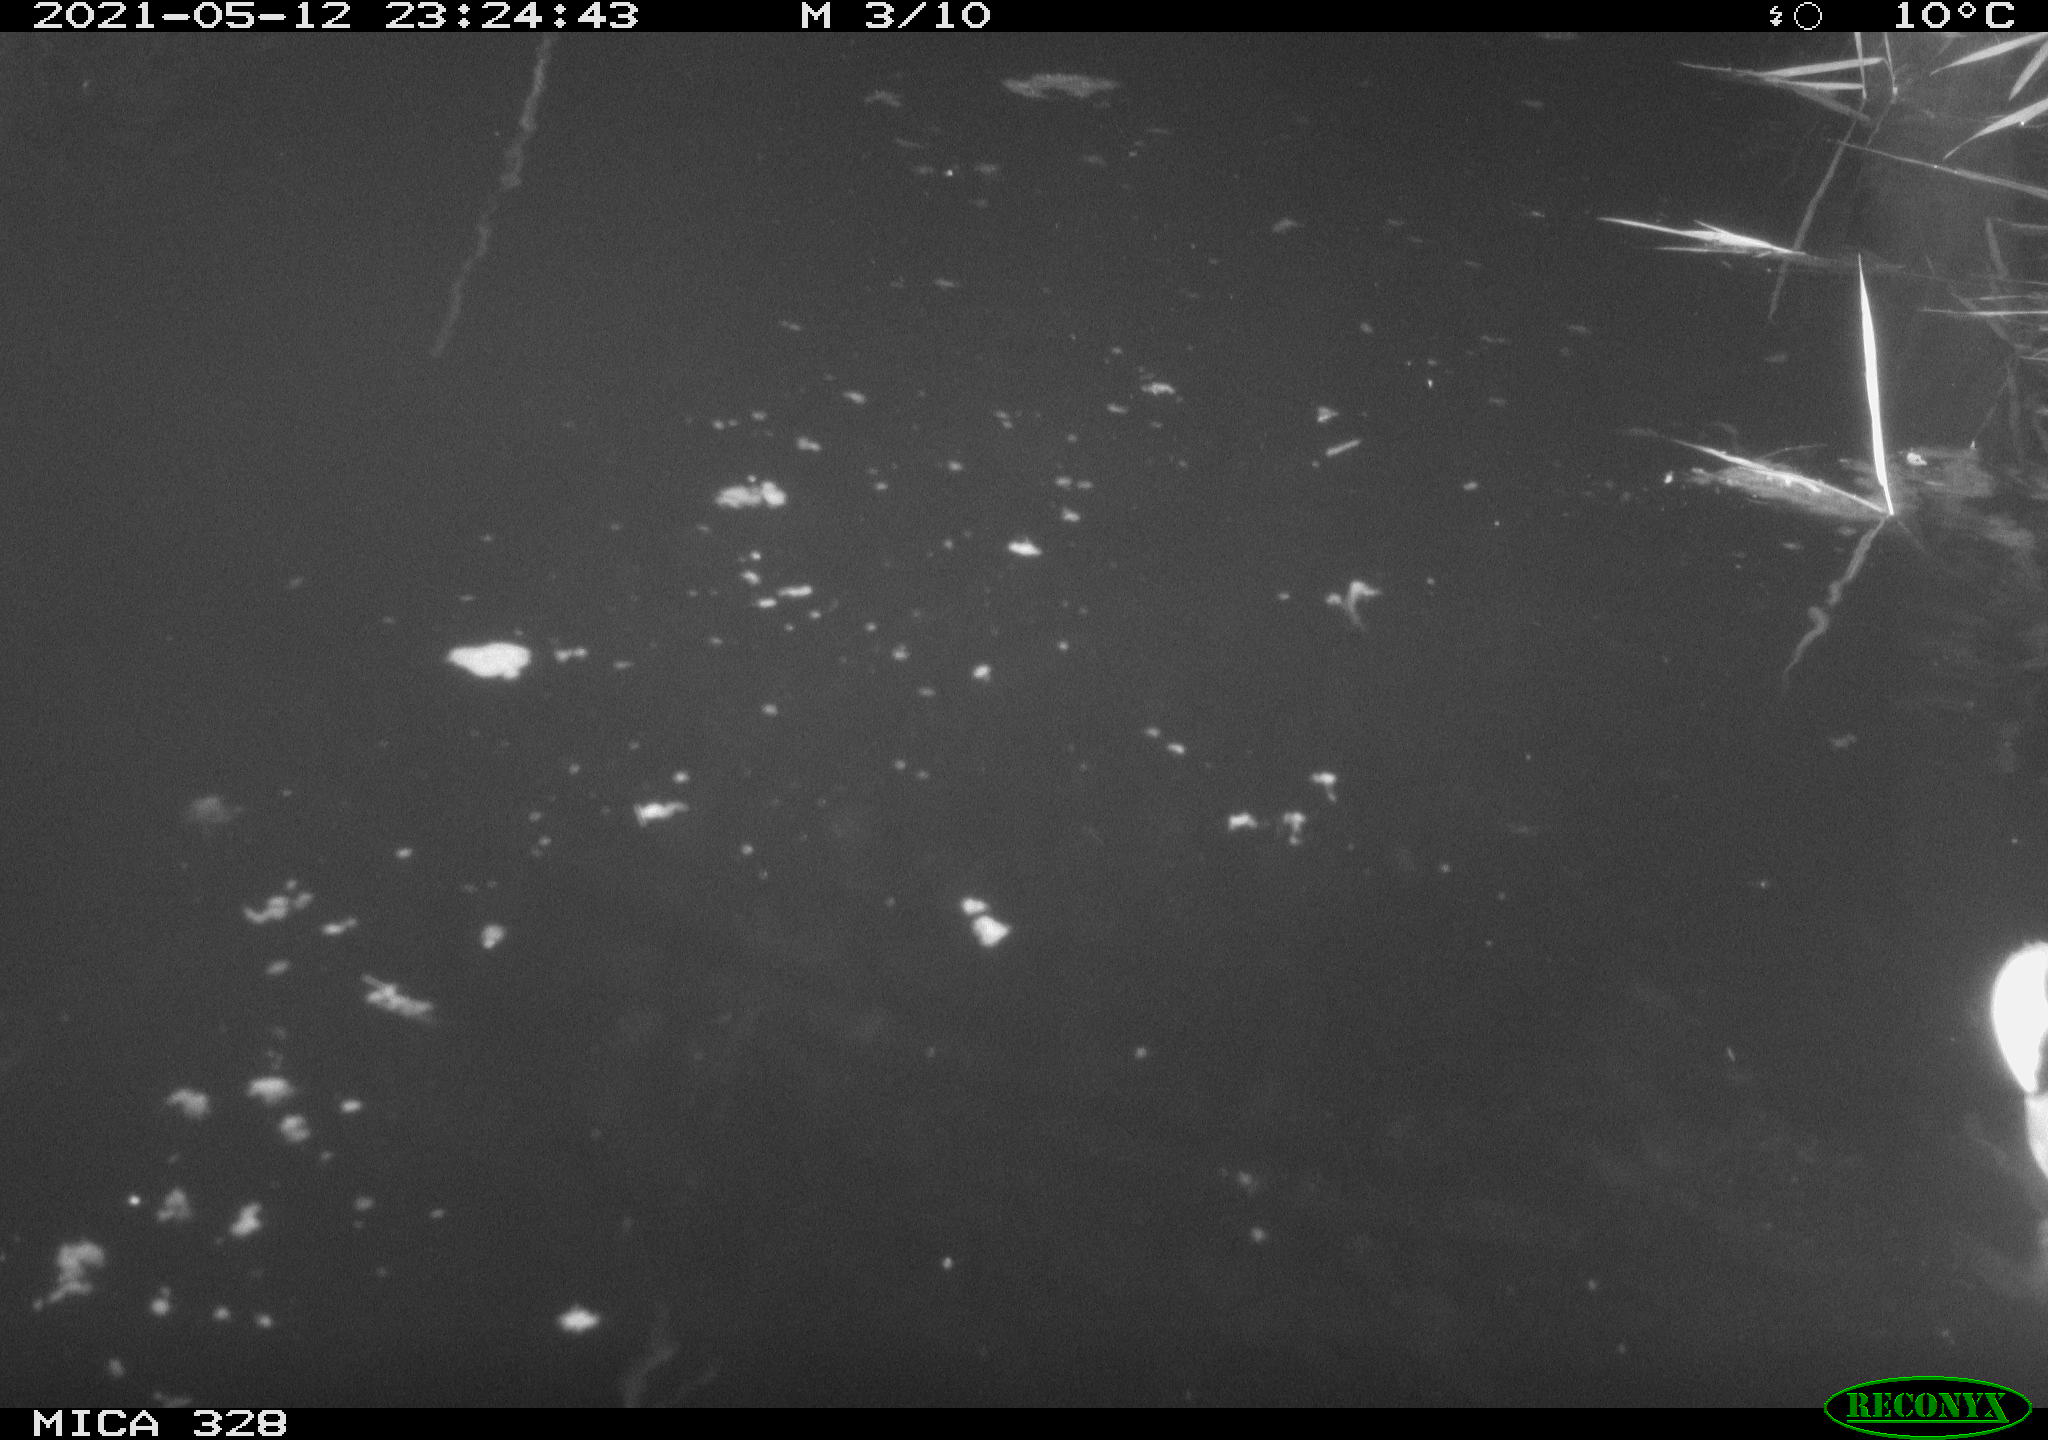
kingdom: Animalia
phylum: Chordata
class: Aves
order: Anseriformes
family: Anatidae
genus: Anas
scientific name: Anas platyrhynchos
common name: Mallard
